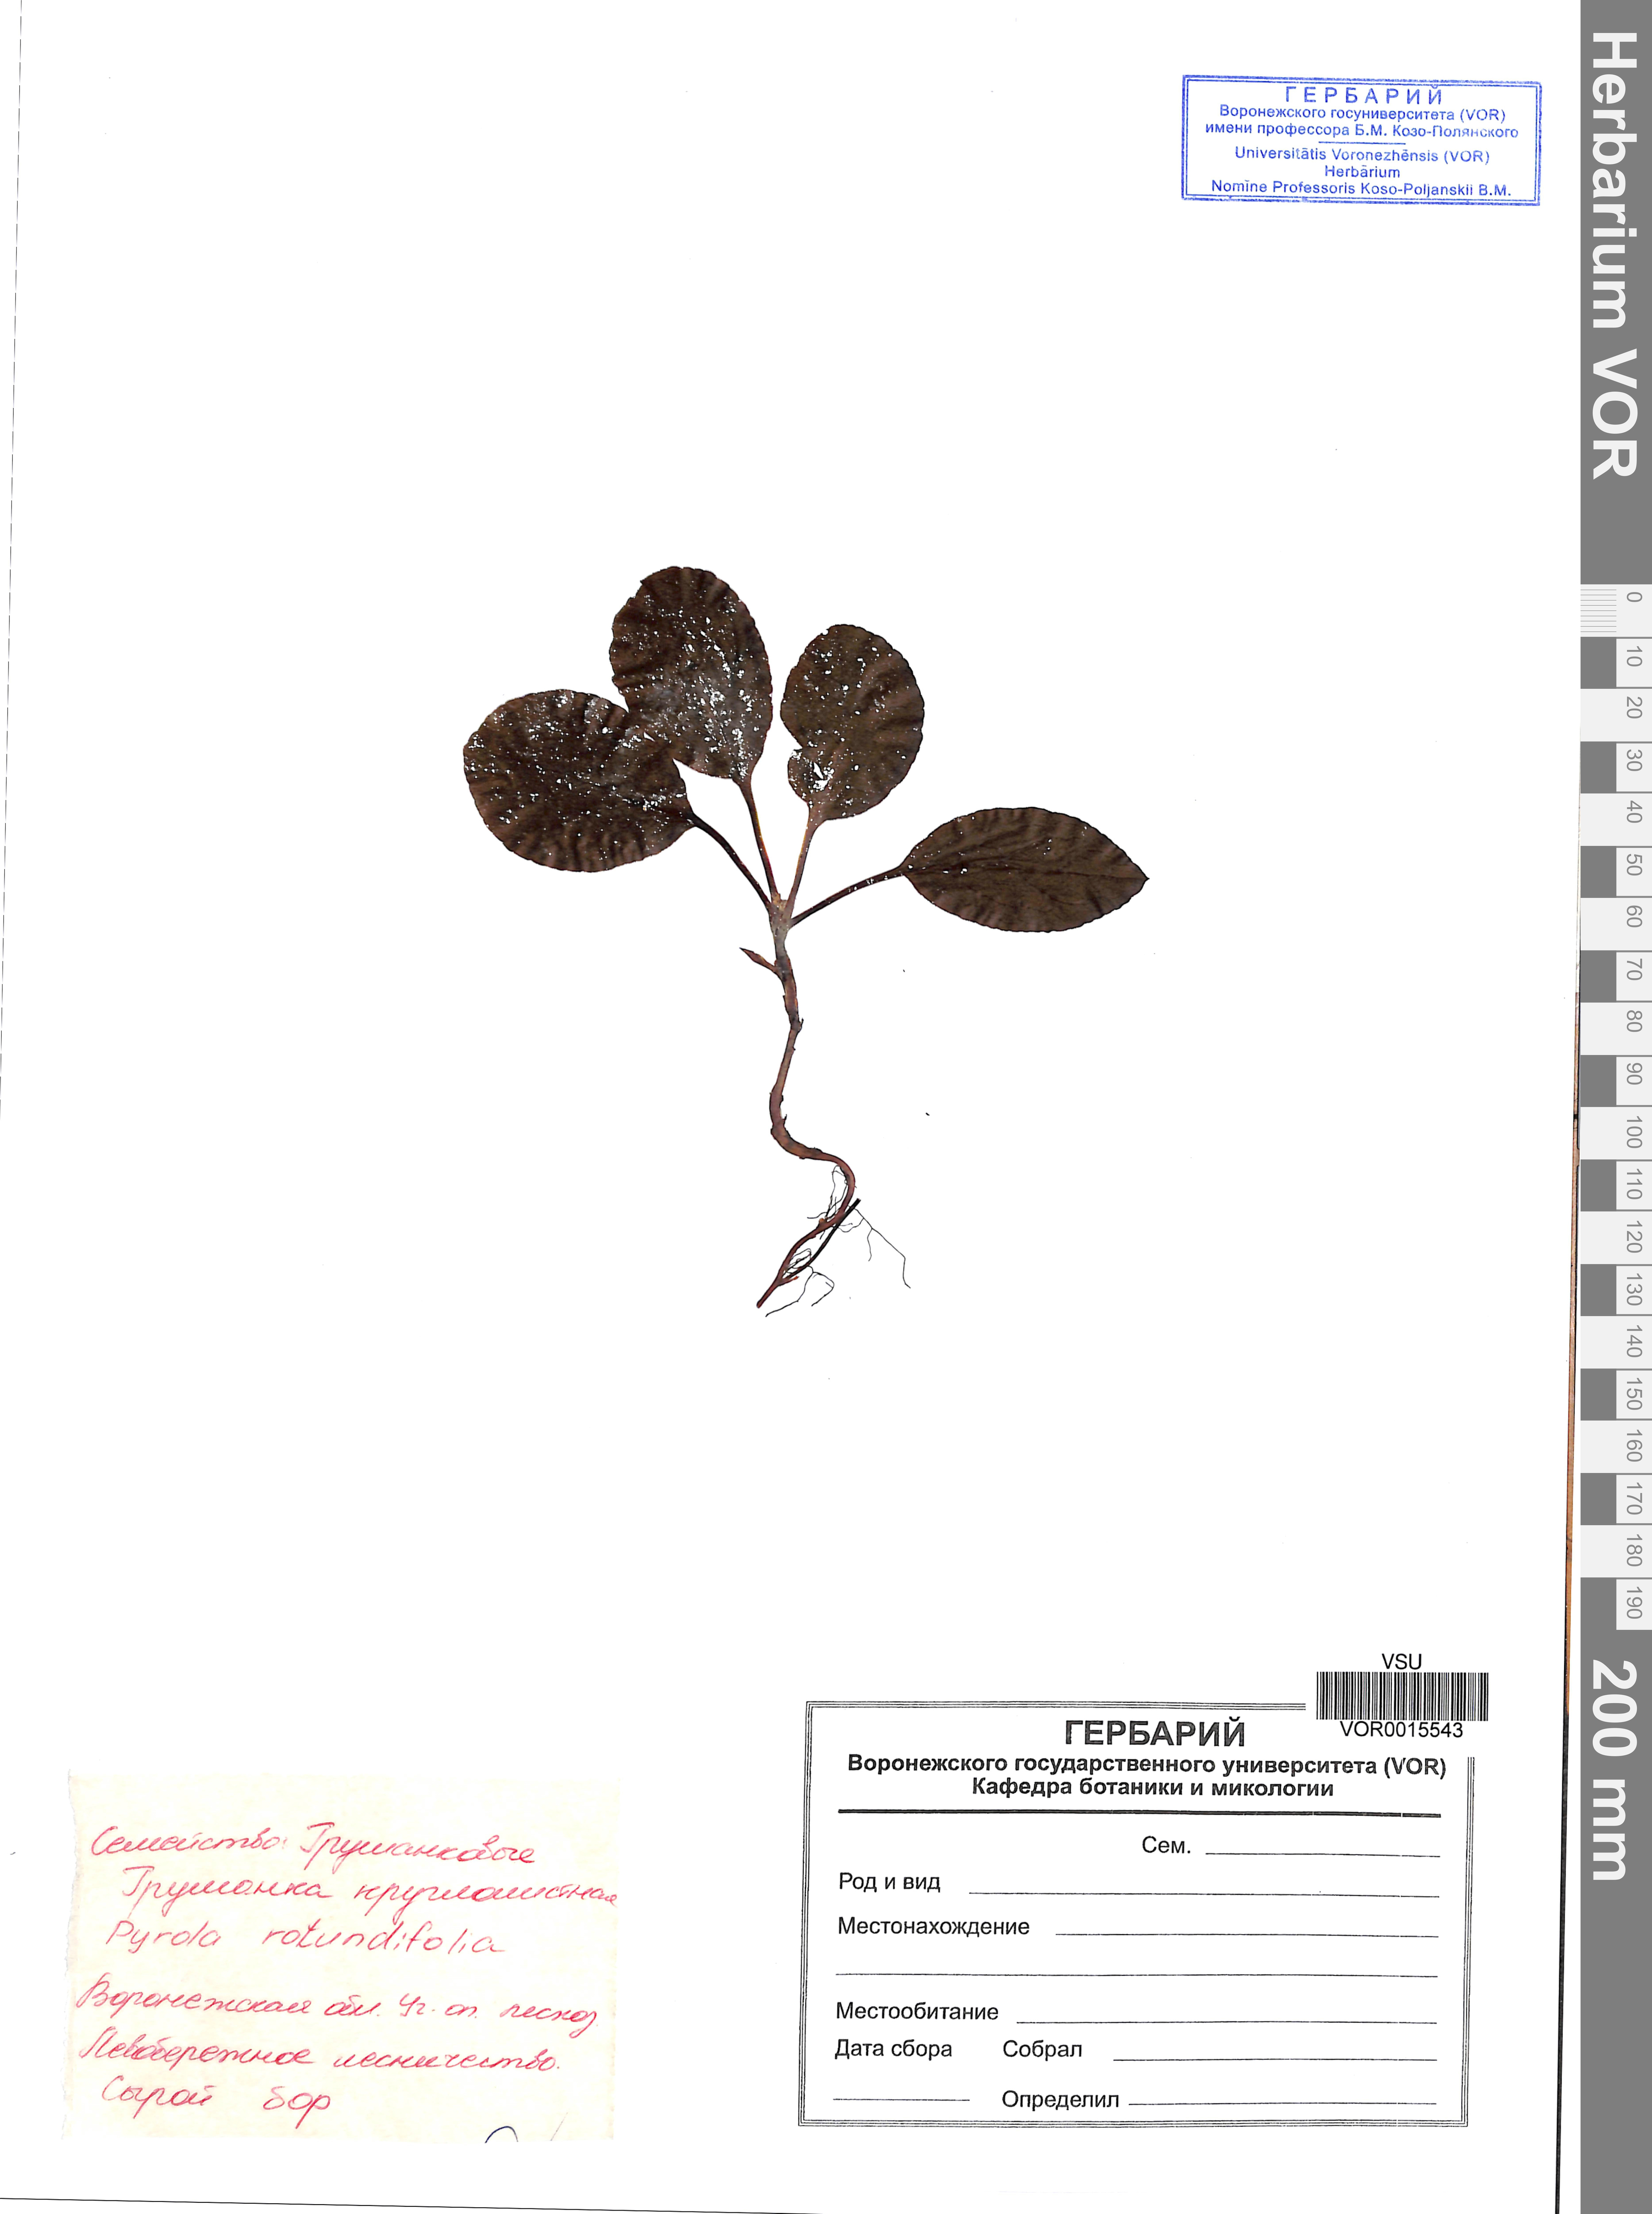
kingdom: Plantae
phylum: Tracheophyta
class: Magnoliopsida
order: Ericales
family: Ericaceae
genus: Pyrola
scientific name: Pyrola rotundifolia
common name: Round-leaved wintergreen
